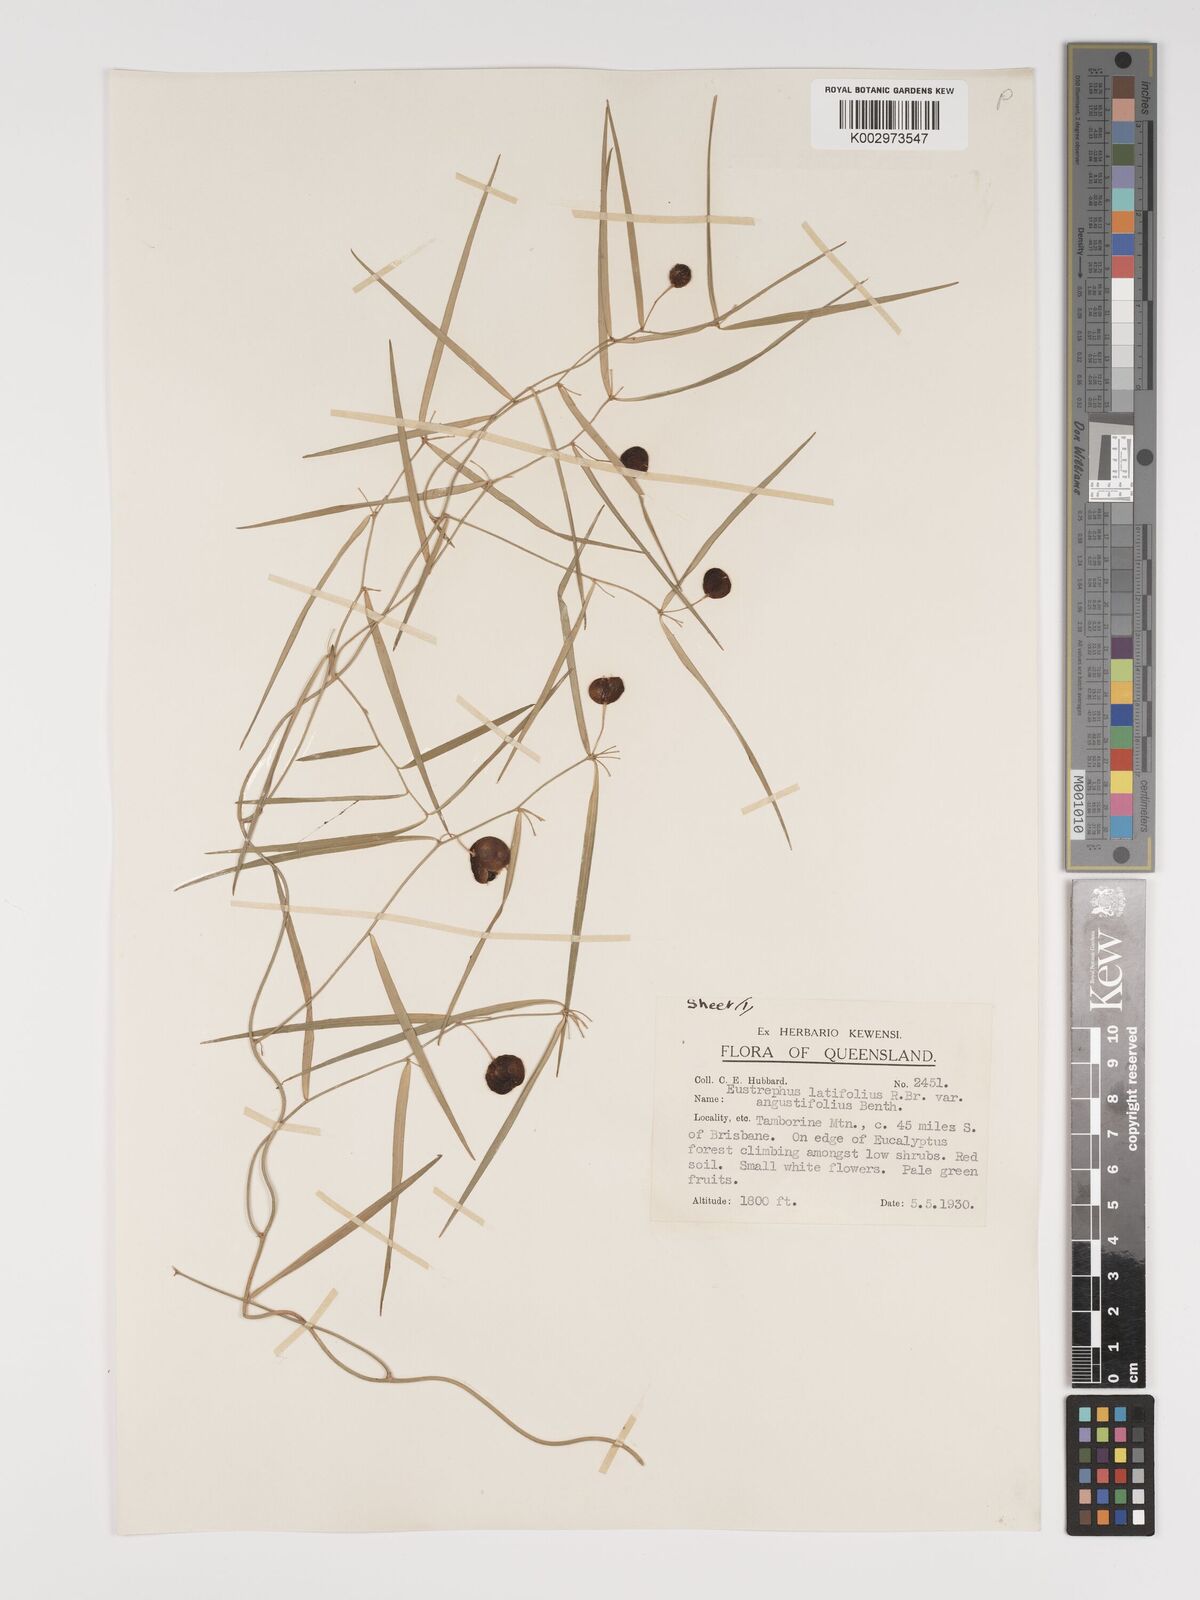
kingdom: Plantae
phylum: Tracheophyta
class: Liliopsida
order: Asparagales
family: Asparagaceae
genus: Eustrephus
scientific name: Eustrephus latifolius
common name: Orangevine
